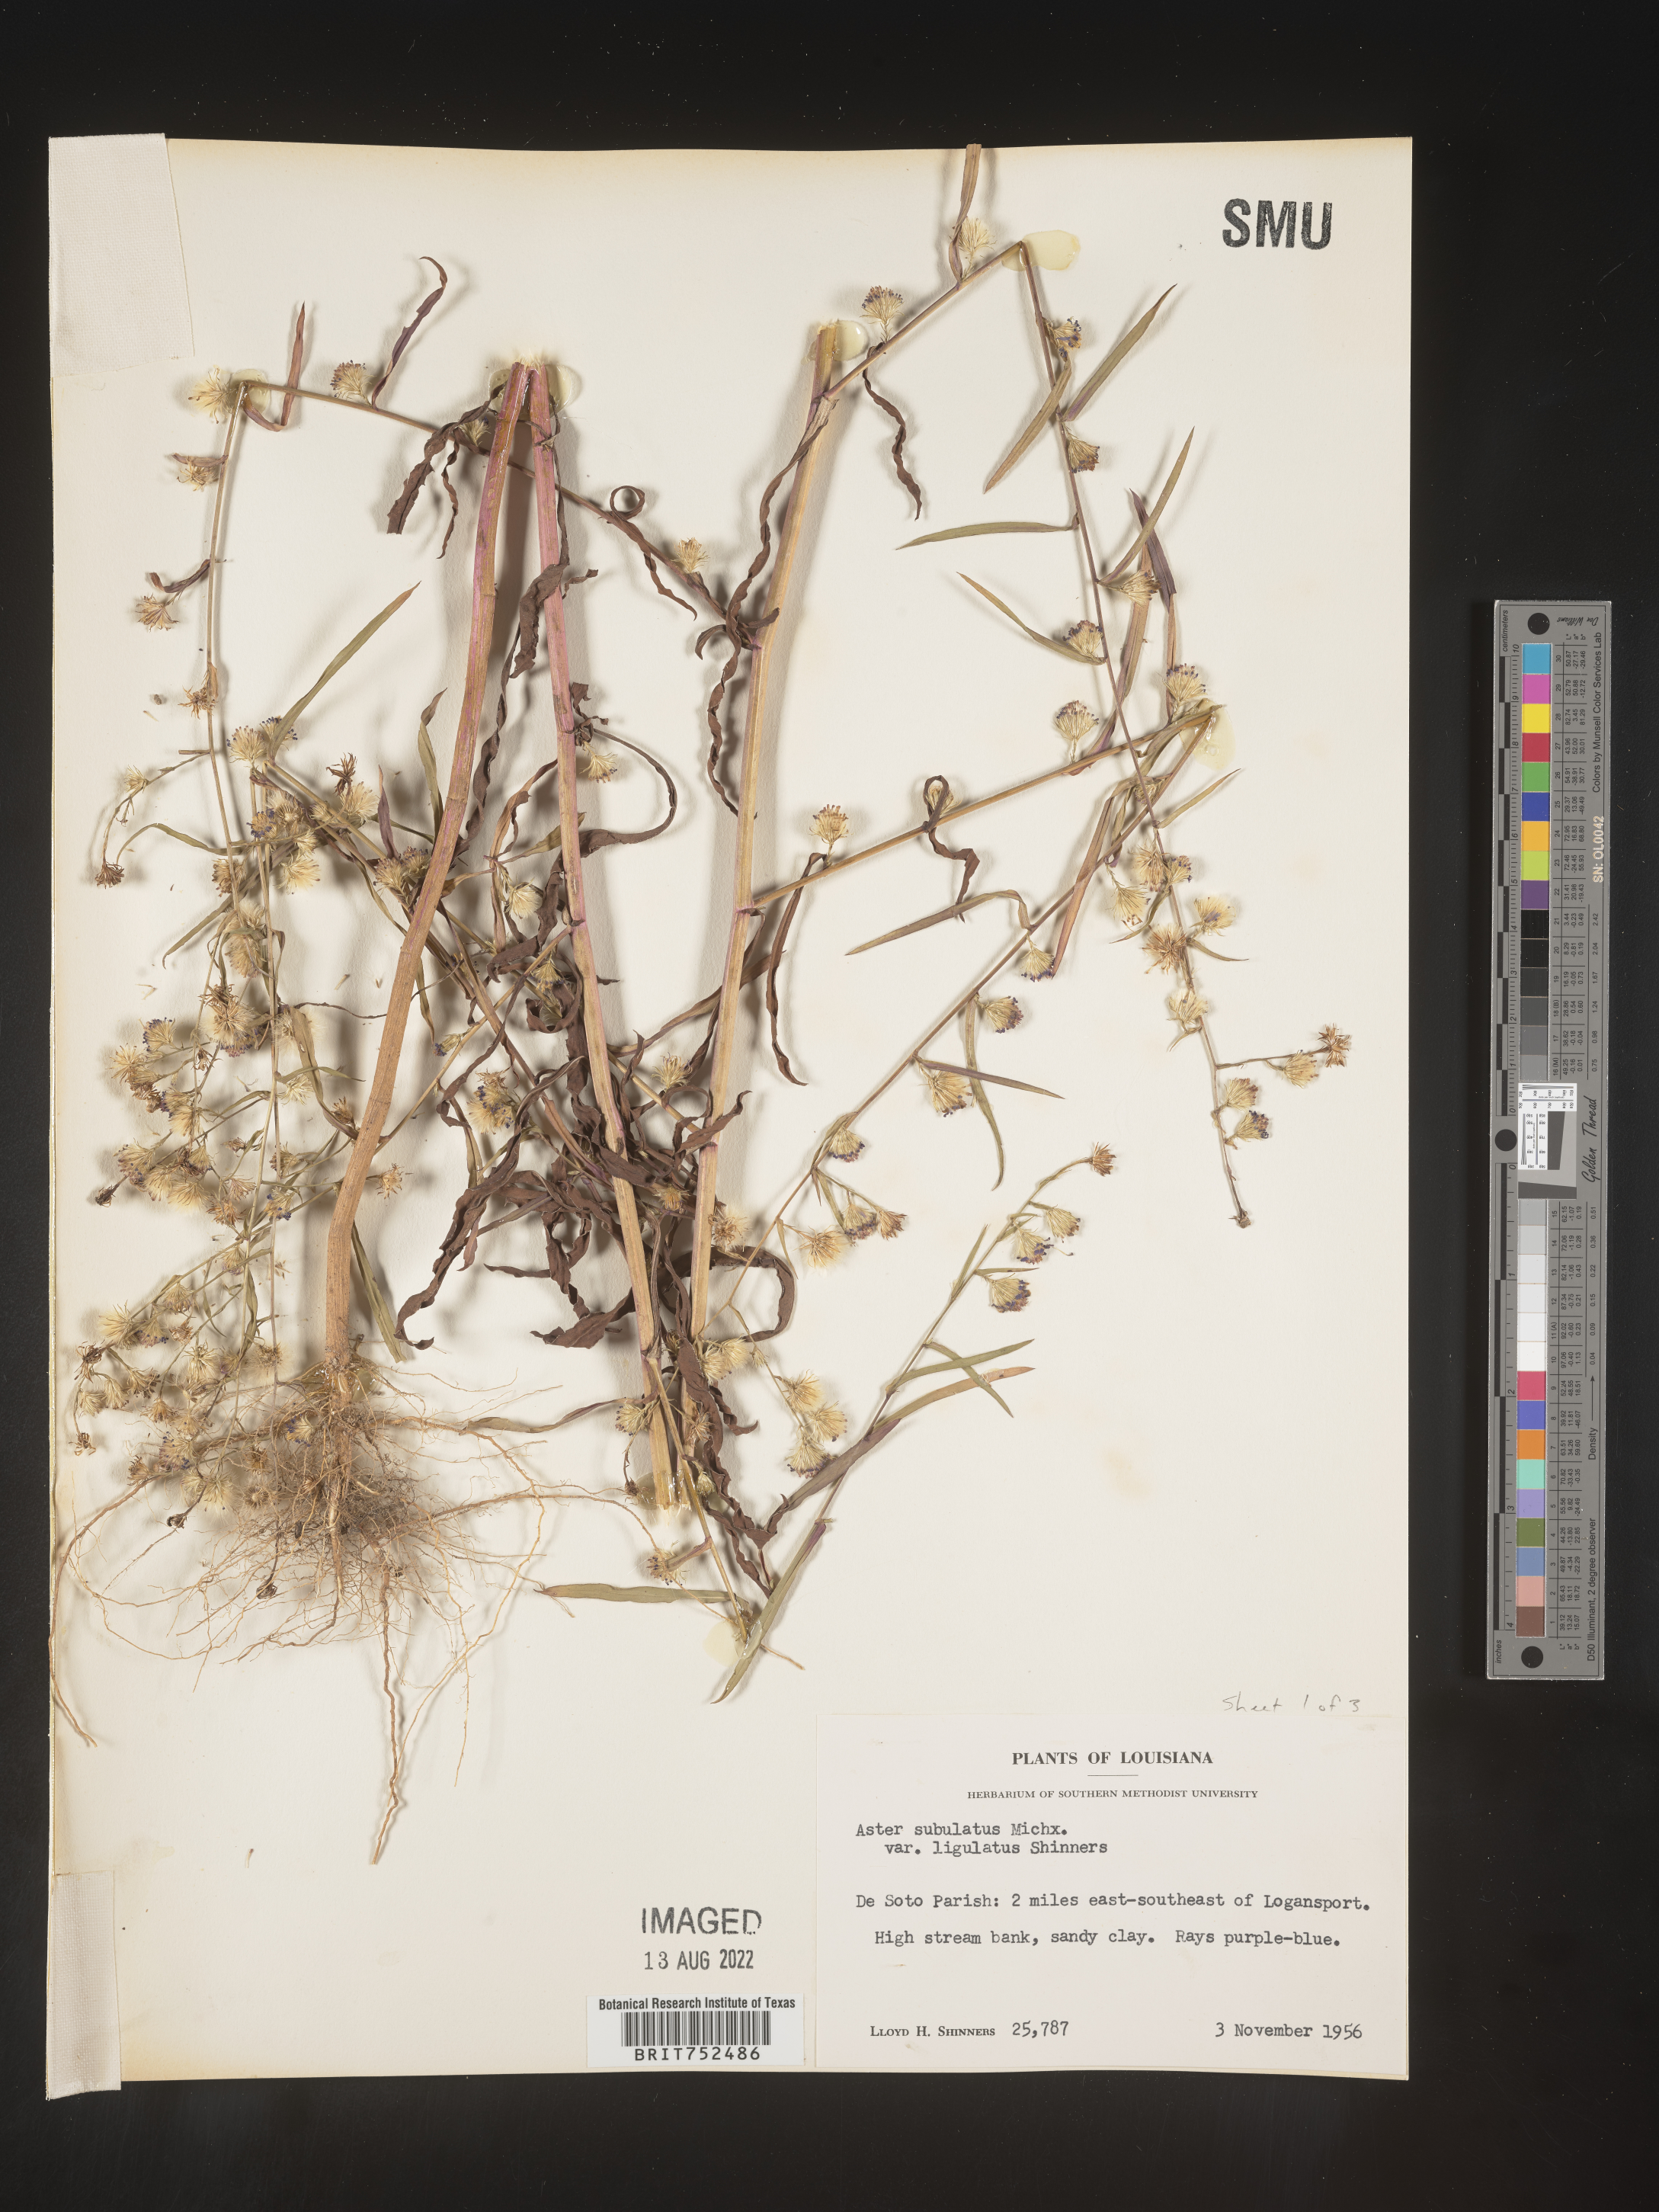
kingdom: Plantae
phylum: Tracheophyta
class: Magnoliopsida
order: Asterales
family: Asteraceae
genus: Symphyotrichum
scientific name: Symphyotrichum divaricatum
